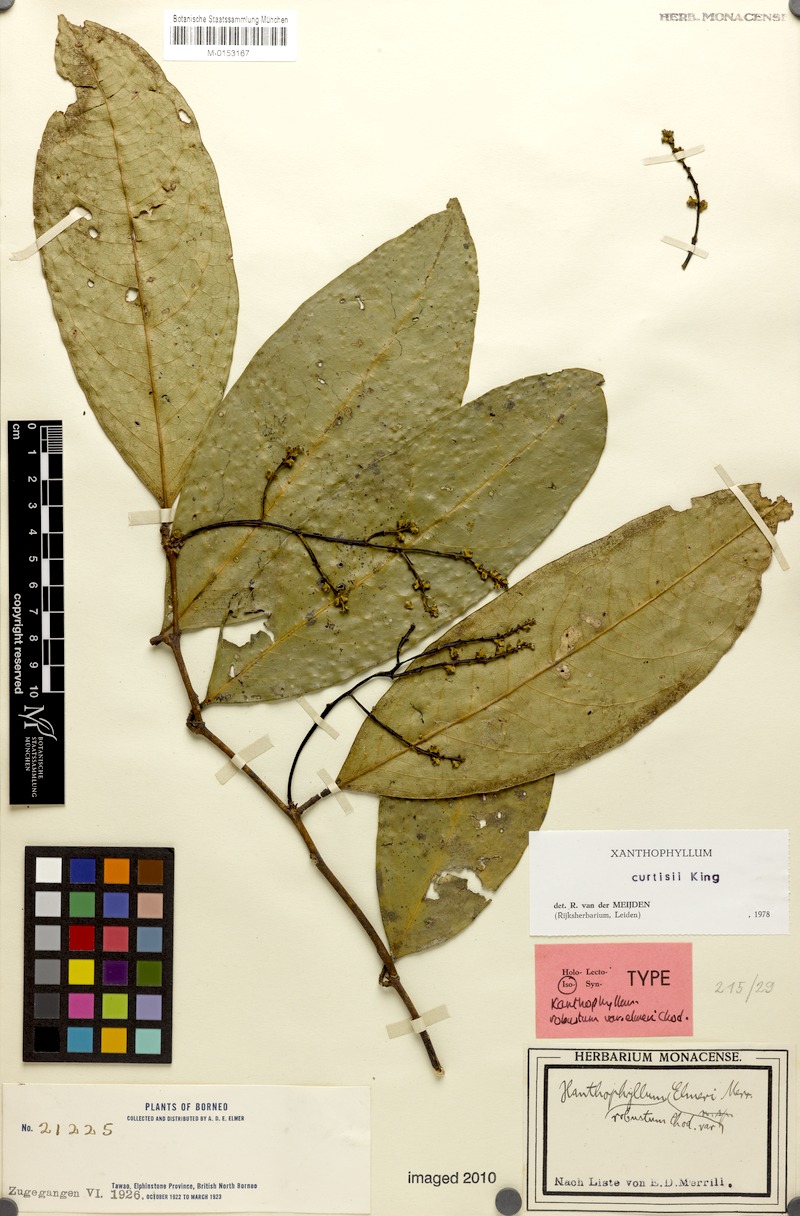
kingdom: Plantae
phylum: Tracheophyta
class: Magnoliopsida
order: Fabales
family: Polygalaceae
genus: Xanthophyllum
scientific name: Xanthophyllum vitellinum
